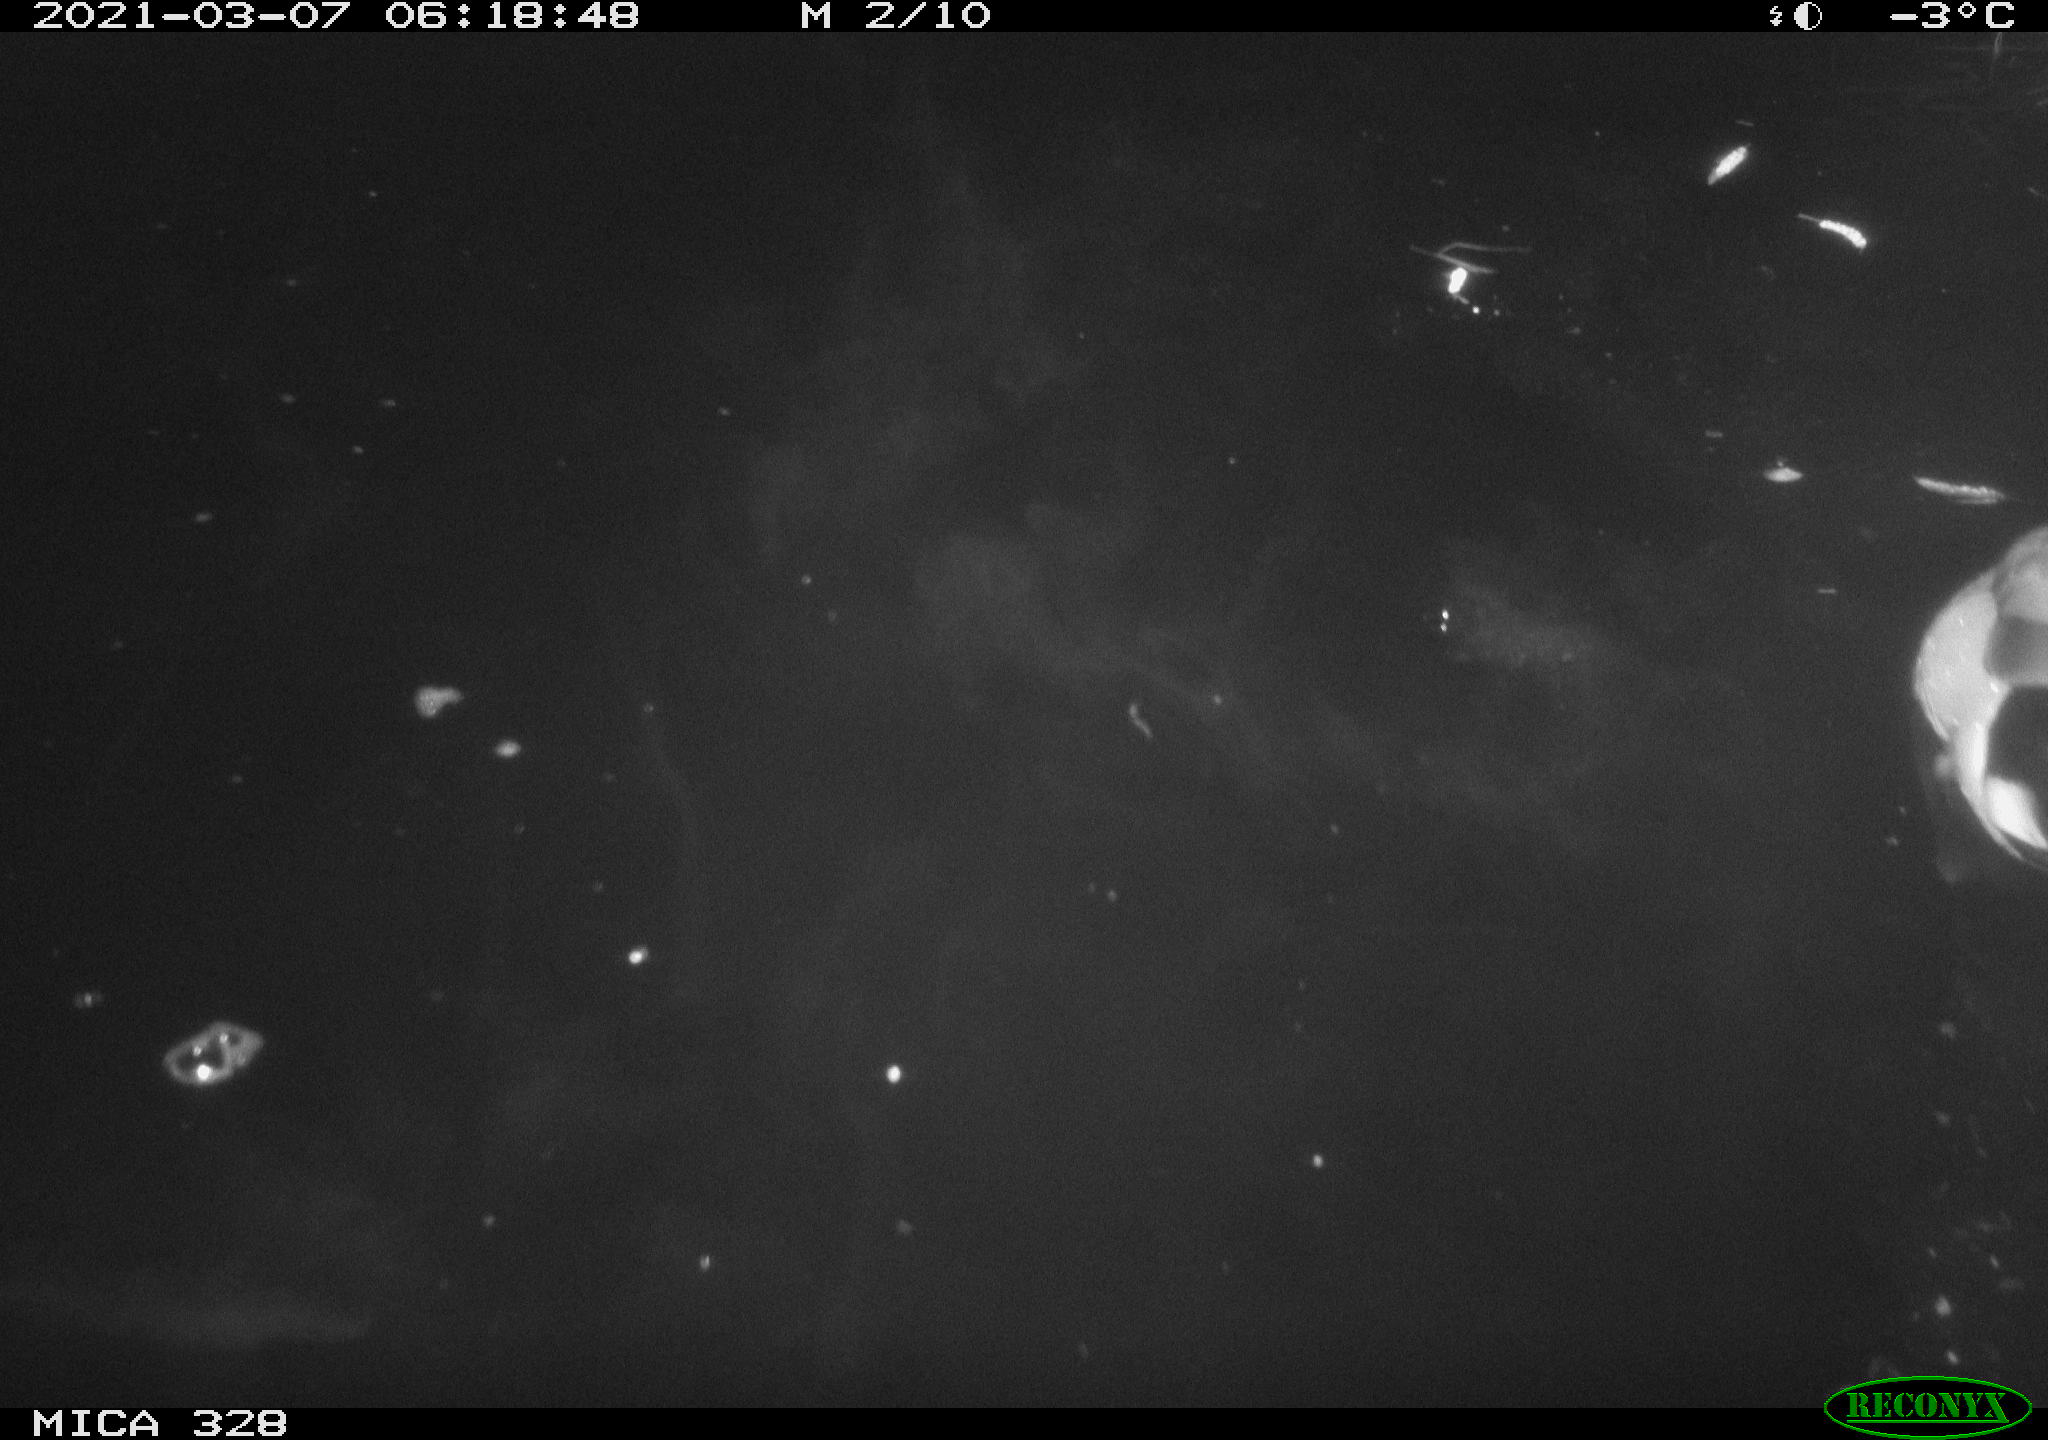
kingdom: Animalia
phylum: Chordata
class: Aves
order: Anseriformes
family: Anatidae
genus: Anas
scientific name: Anas platyrhynchos
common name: Mallard
